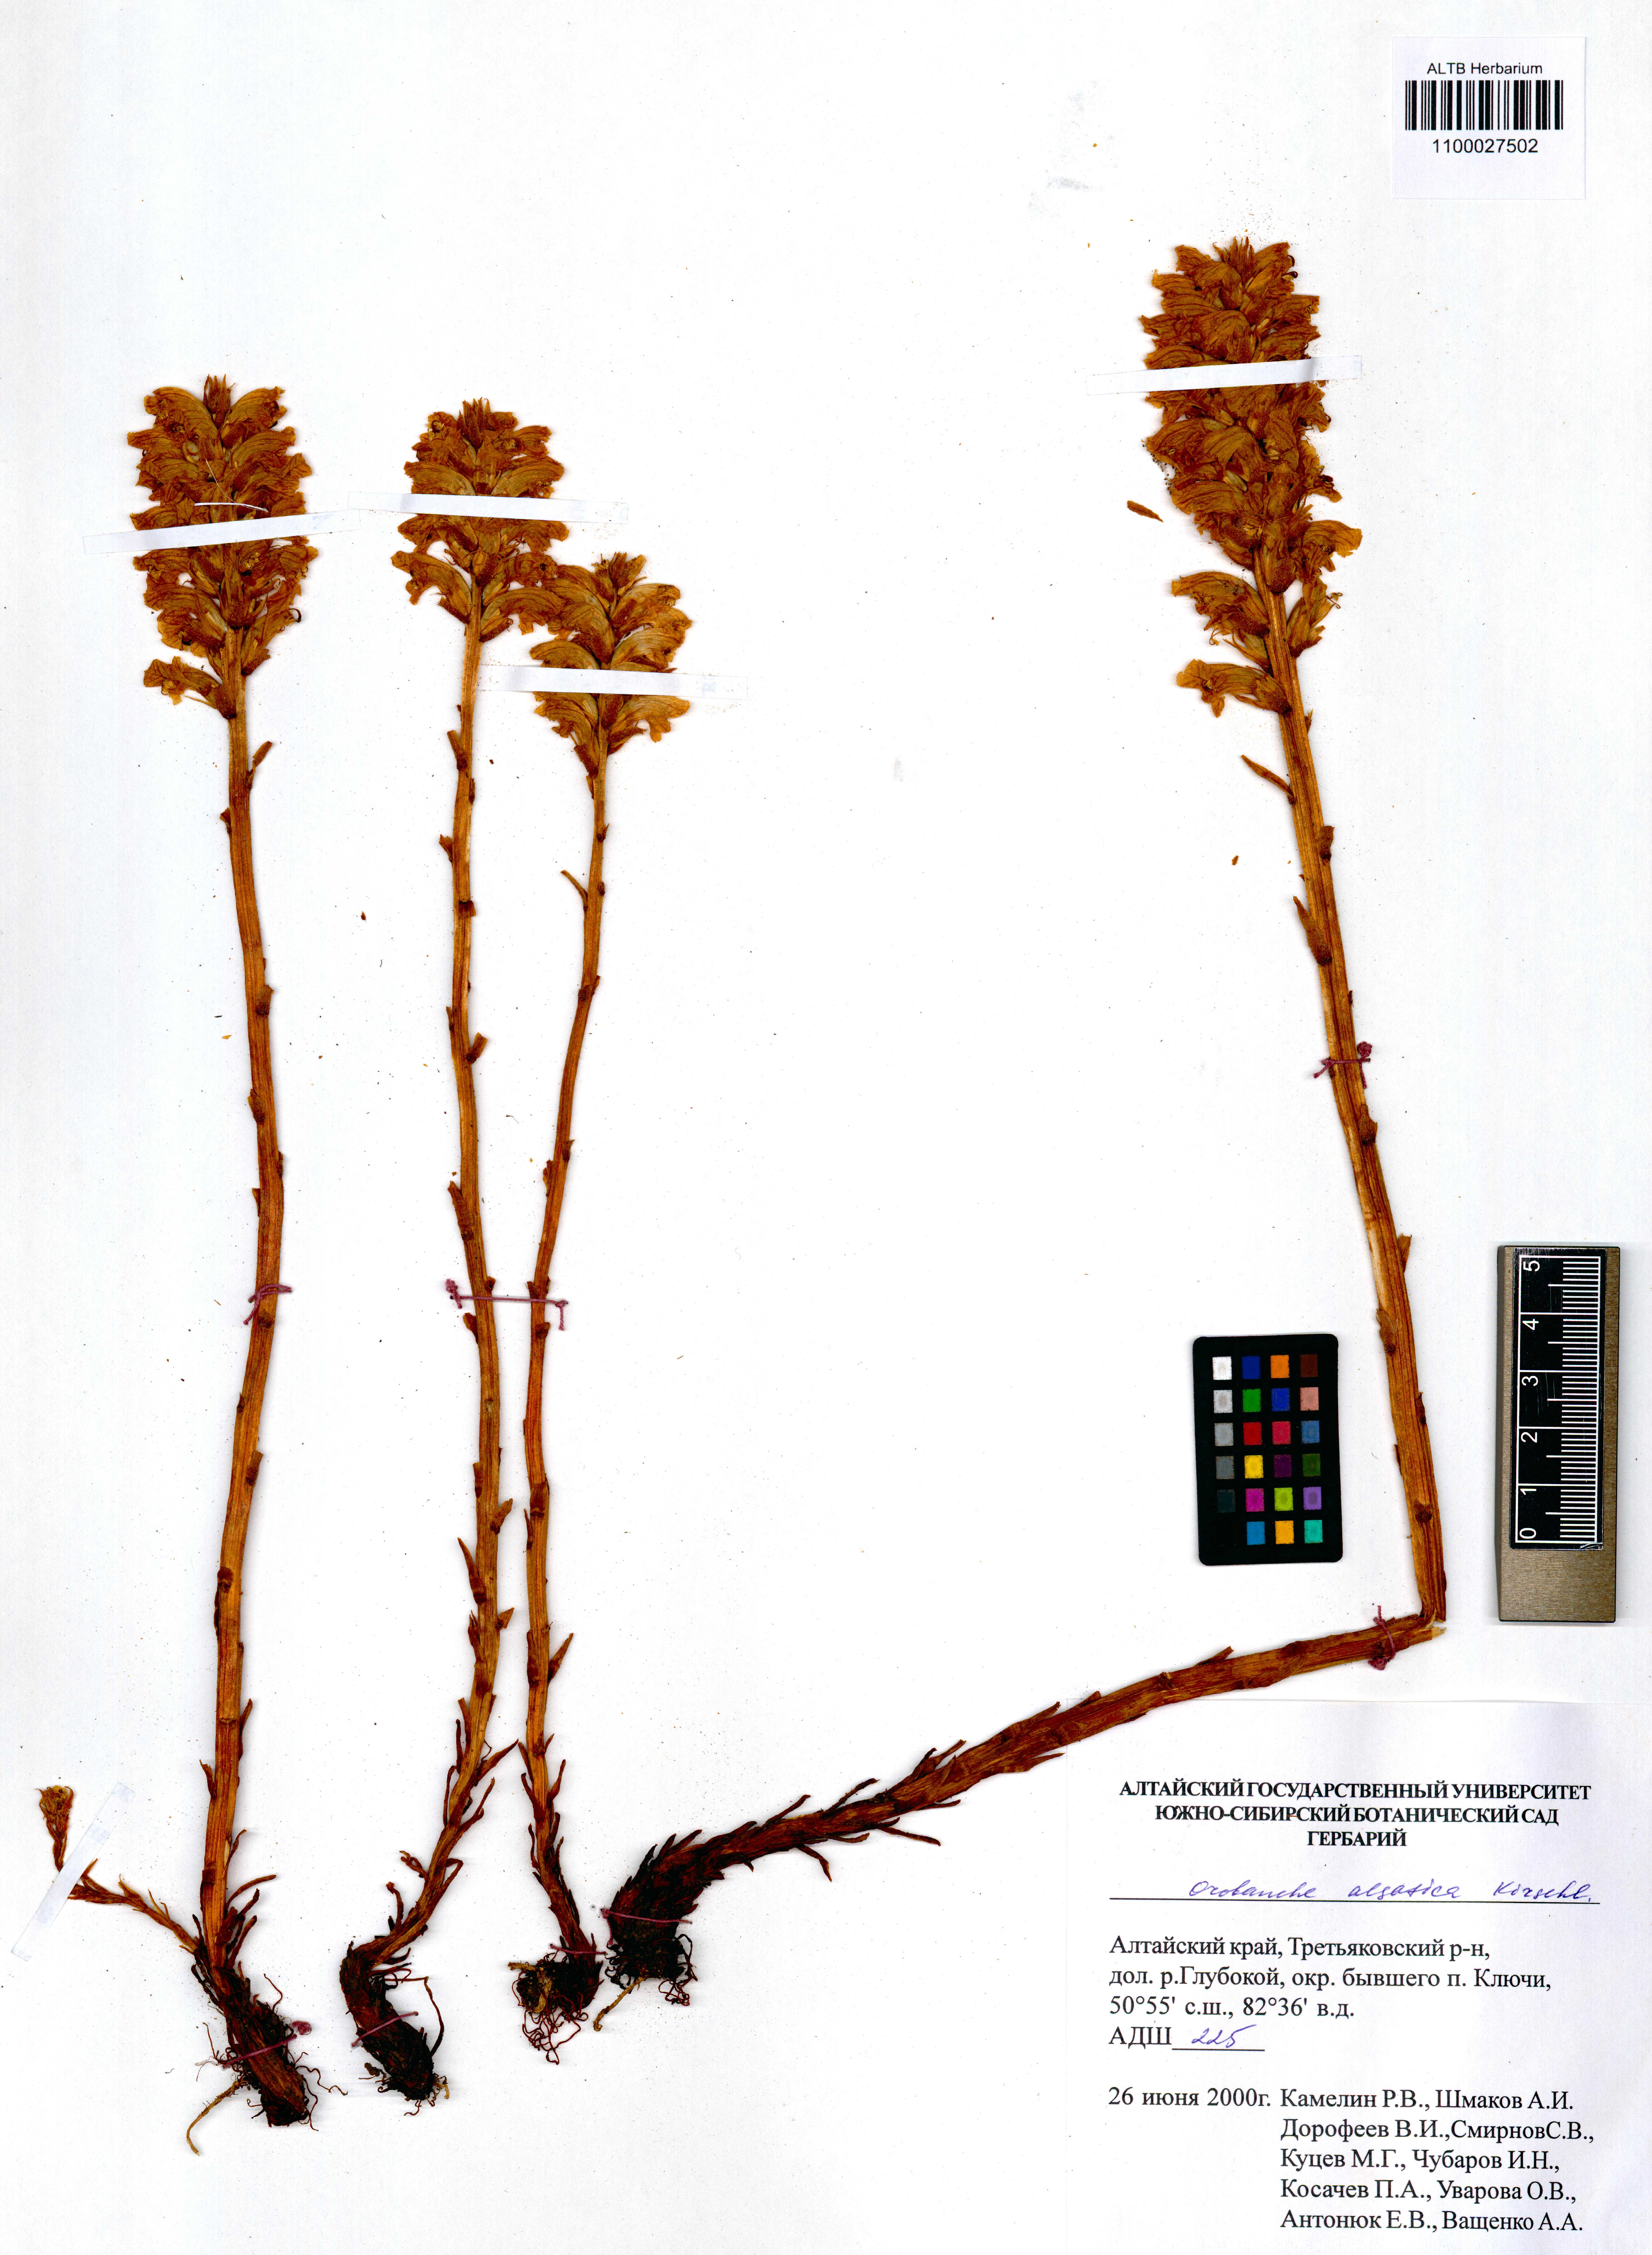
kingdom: Plantae
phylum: Tracheophyta
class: Magnoliopsida
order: Lamiales
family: Orobanchaceae
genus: Orobanche
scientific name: Orobanche alsatica
